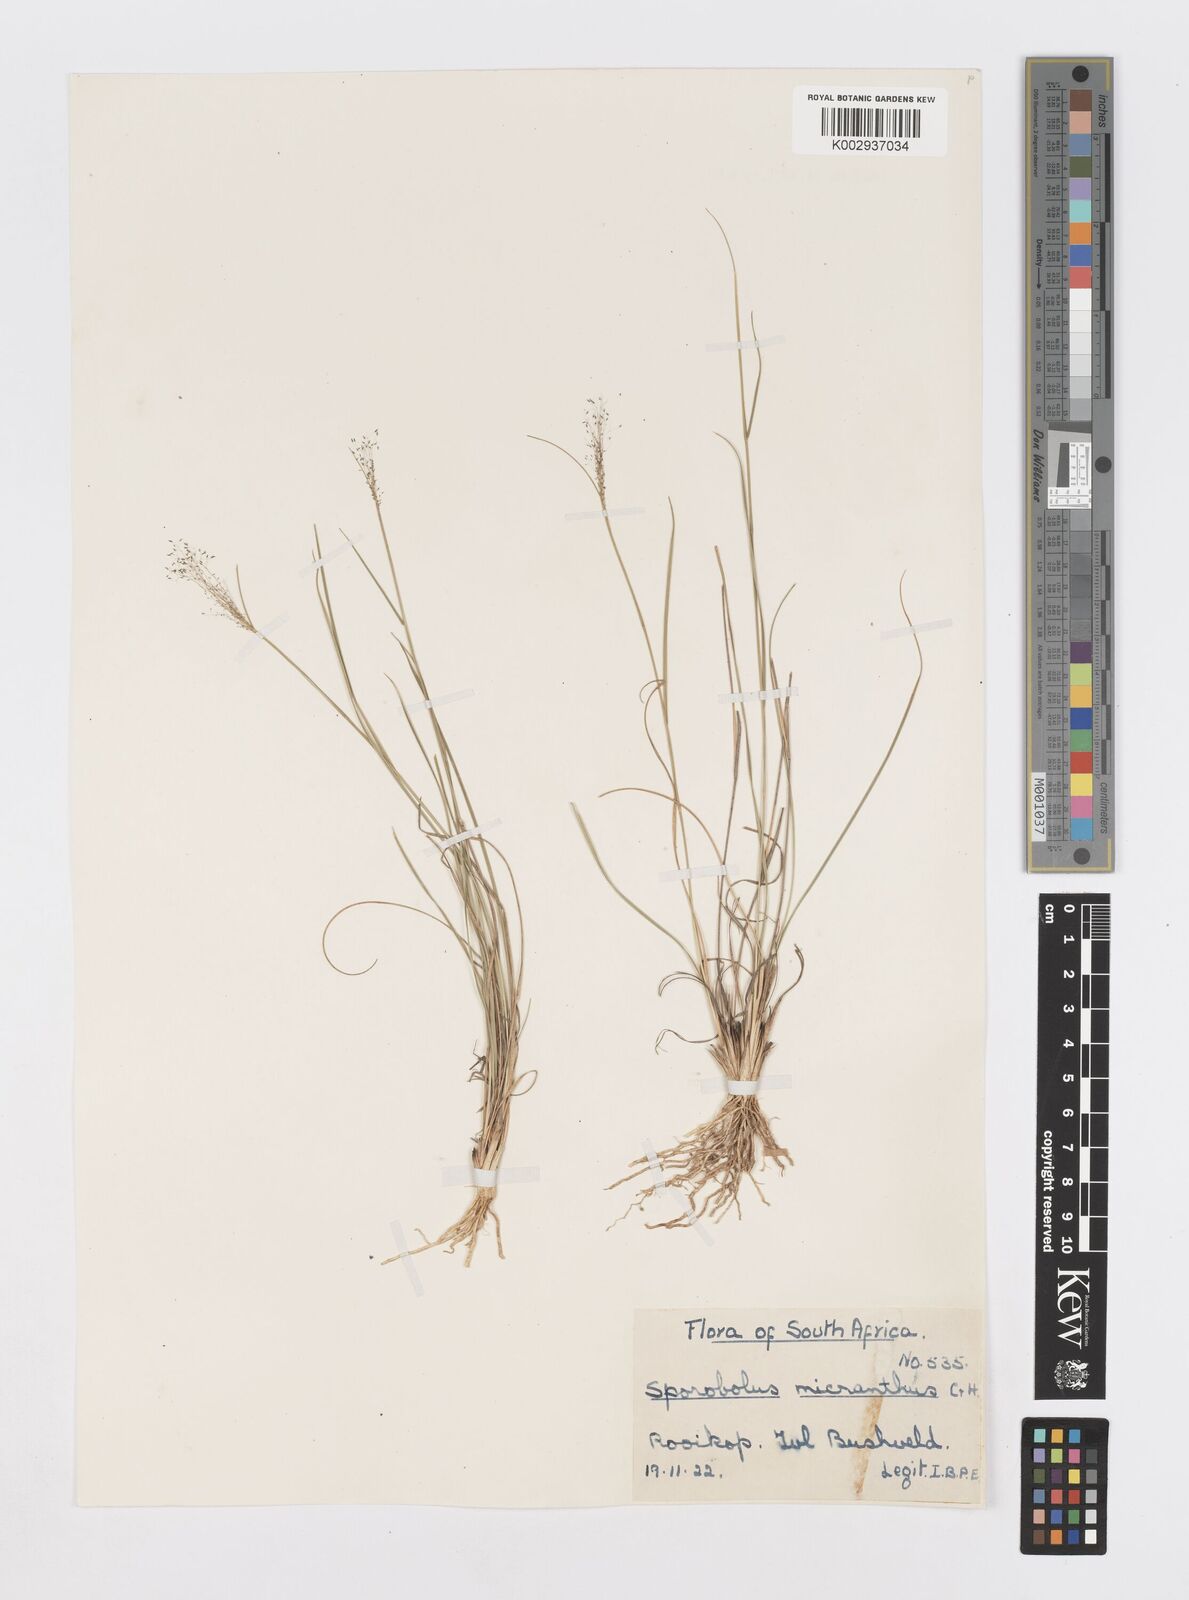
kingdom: Plantae
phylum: Tracheophyta
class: Liliopsida
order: Poales
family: Poaceae
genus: Sporobolus
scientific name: Sporobolus welwitschii
